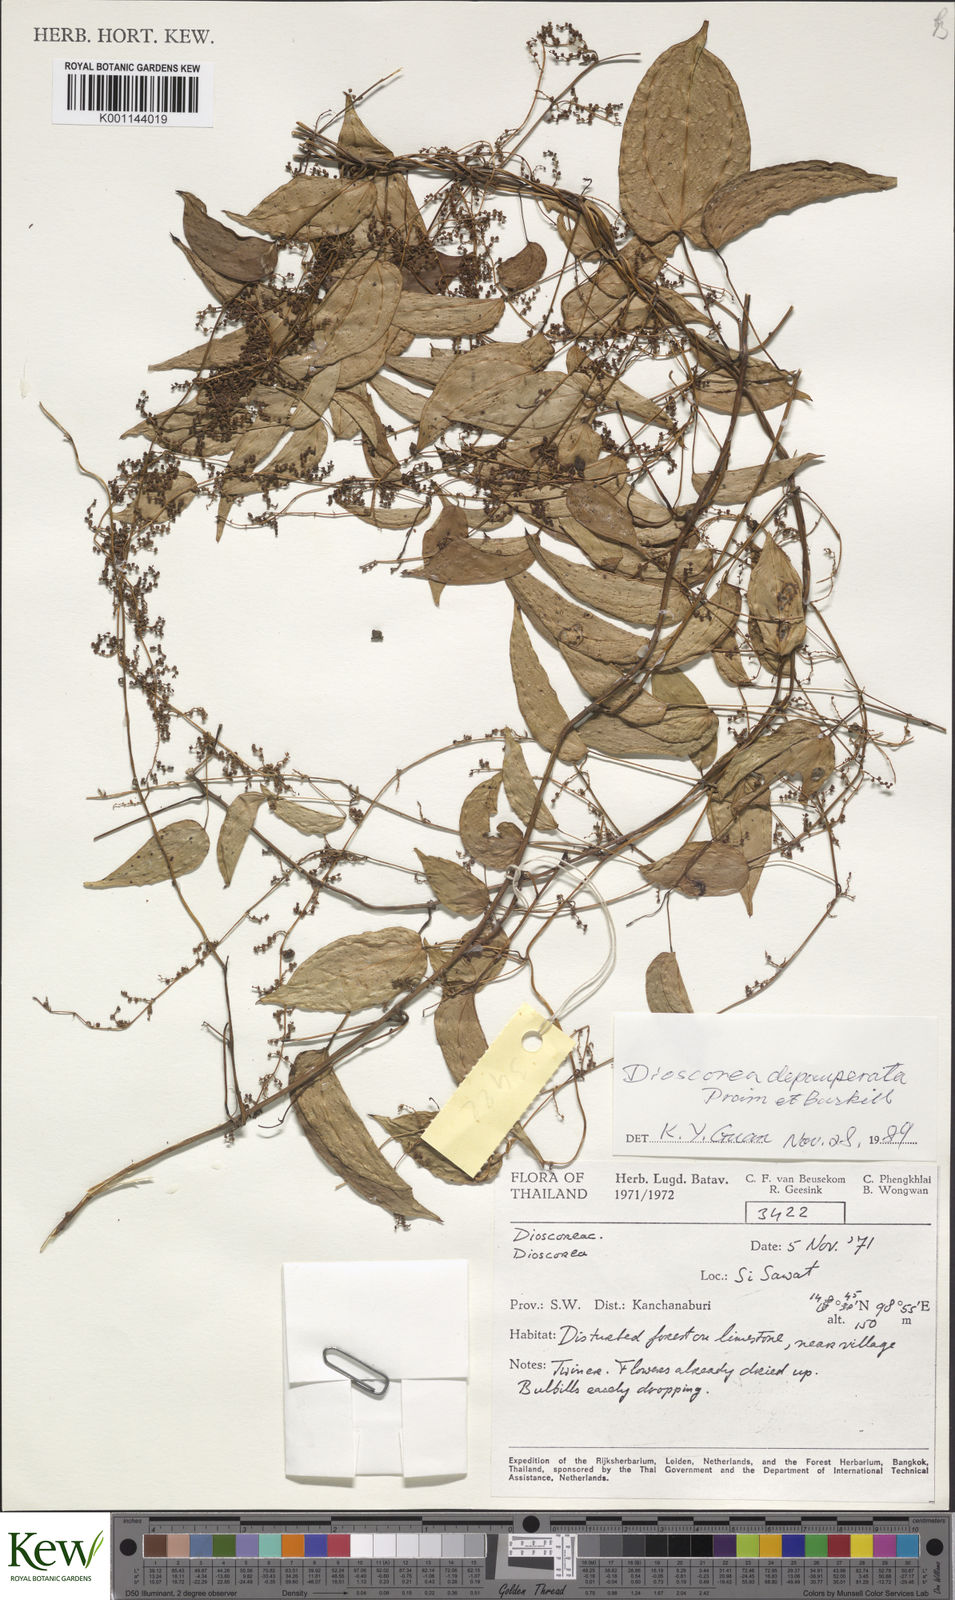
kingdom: Plantae
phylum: Tracheophyta
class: Liliopsida
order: Dioscoreales
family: Dioscoreaceae
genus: Dioscorea
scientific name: Dioscorea
